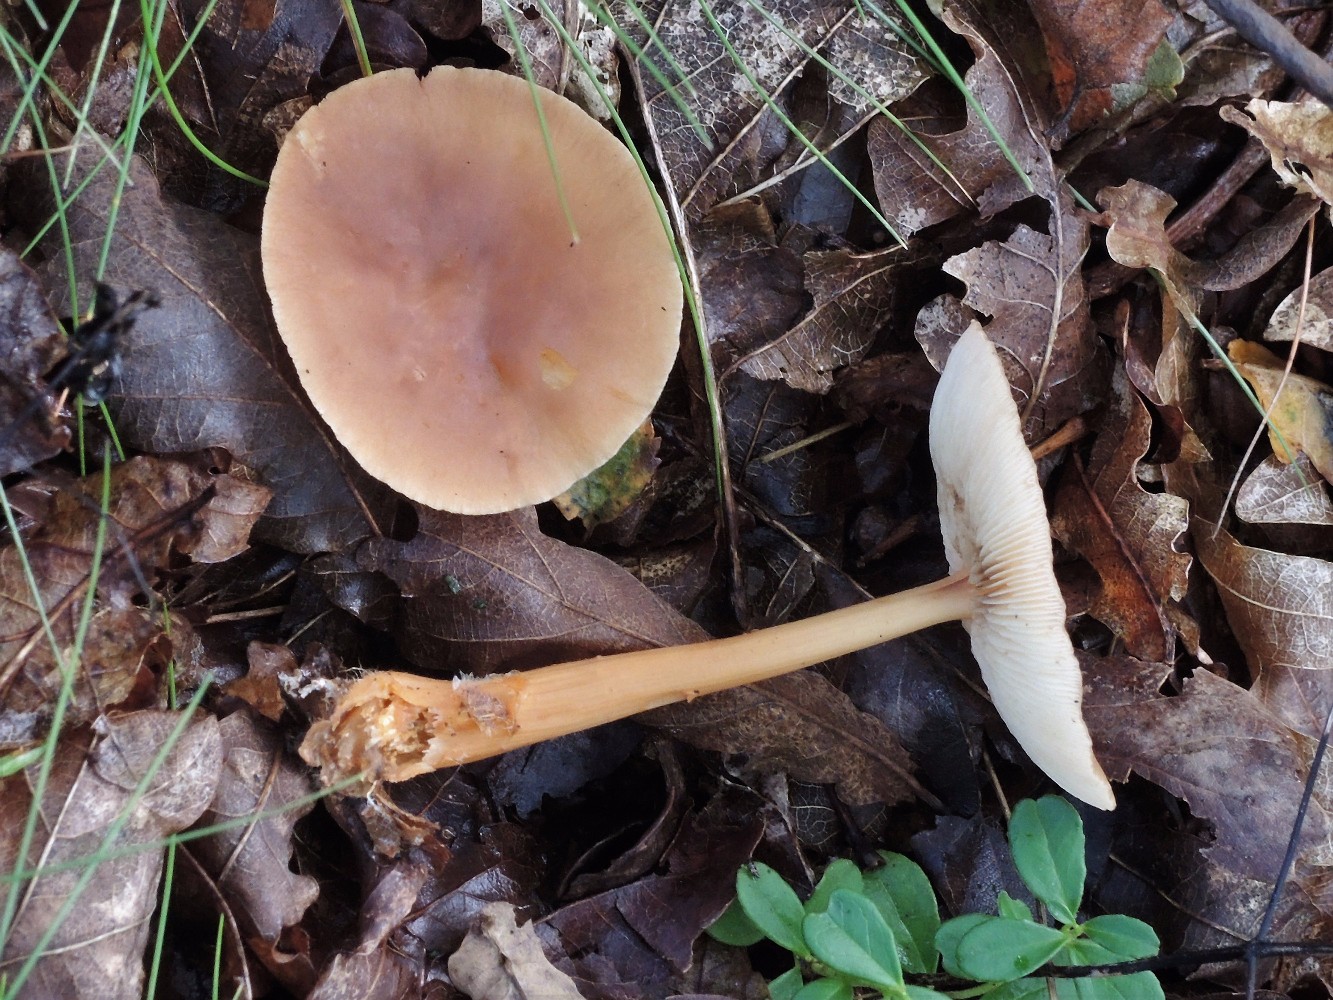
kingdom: Fungi
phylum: Basidiomycota
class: Agaricomycetes
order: Agaricales
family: Omphalotaceae
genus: Gymnopus
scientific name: Gymnopus dryophilus
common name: løv-fladhat
